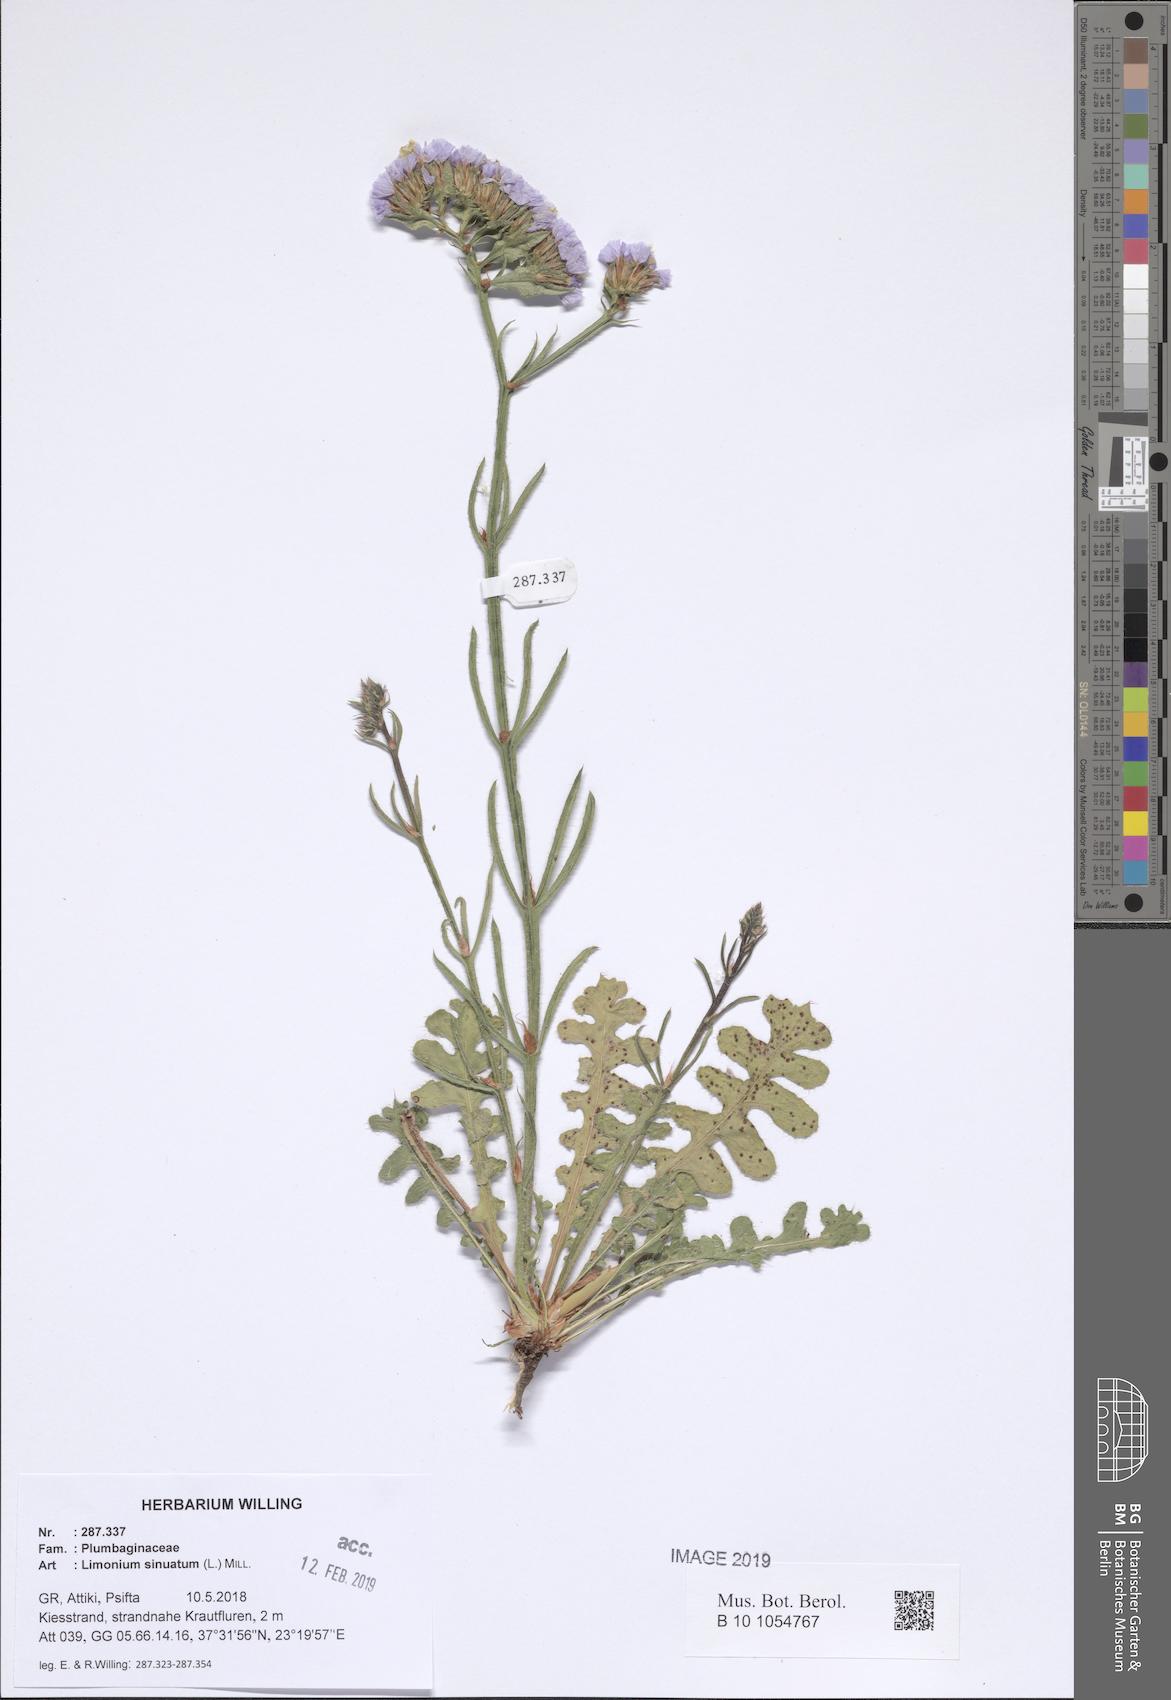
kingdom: Plantae
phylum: Tracheophyta
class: Magnoliopsida
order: Caryophyllales
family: Plumbaginaceae
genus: Limonium
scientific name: Limonium sinuatum
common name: Statice
